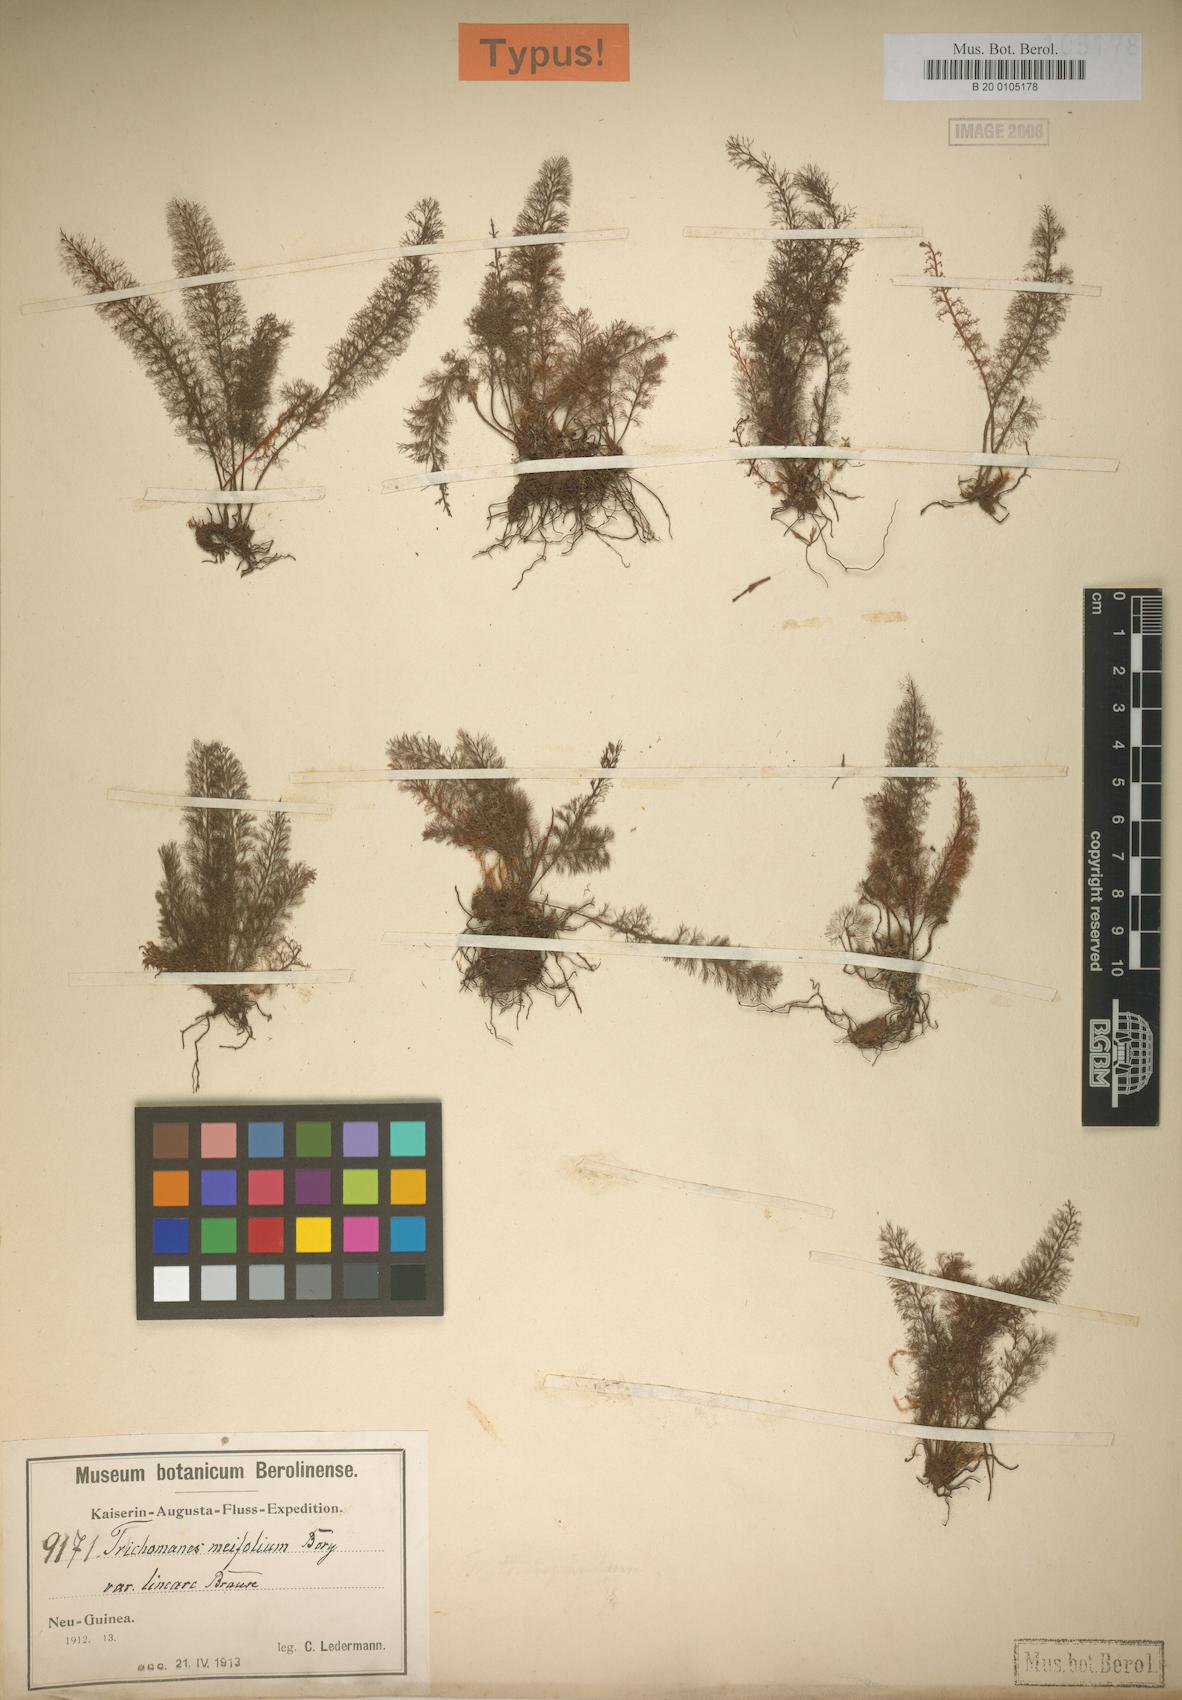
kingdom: Plantae
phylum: Tracheophyta
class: Polypodiopsida
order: Hymenophyllales
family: Hymenophyllaceae
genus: Abrodictyum
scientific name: Abrodictyum pluma
